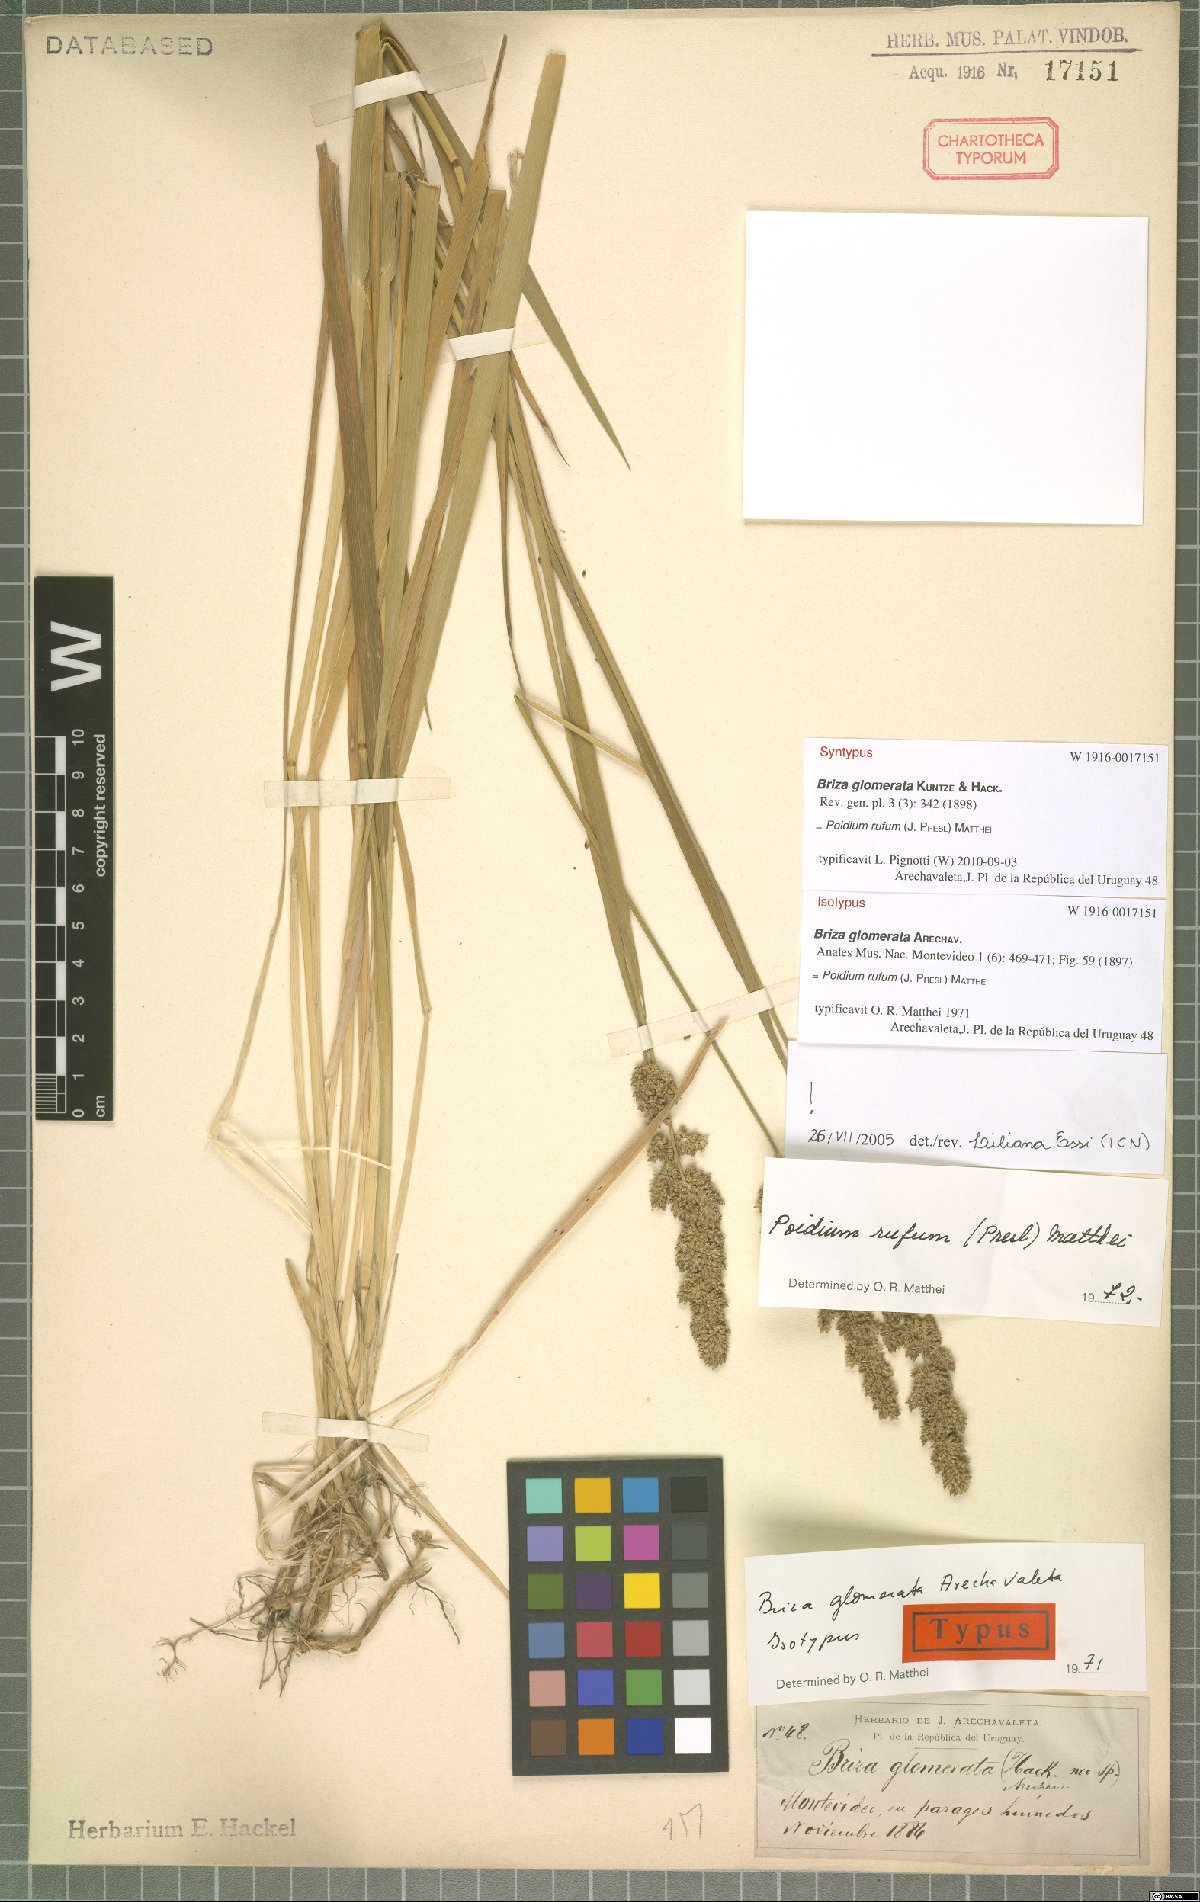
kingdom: Plantae
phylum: Tracheophyta
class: Liliopsida
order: Poales
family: Poaceae
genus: Lombardochloa
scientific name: Lombardochloa rufa
